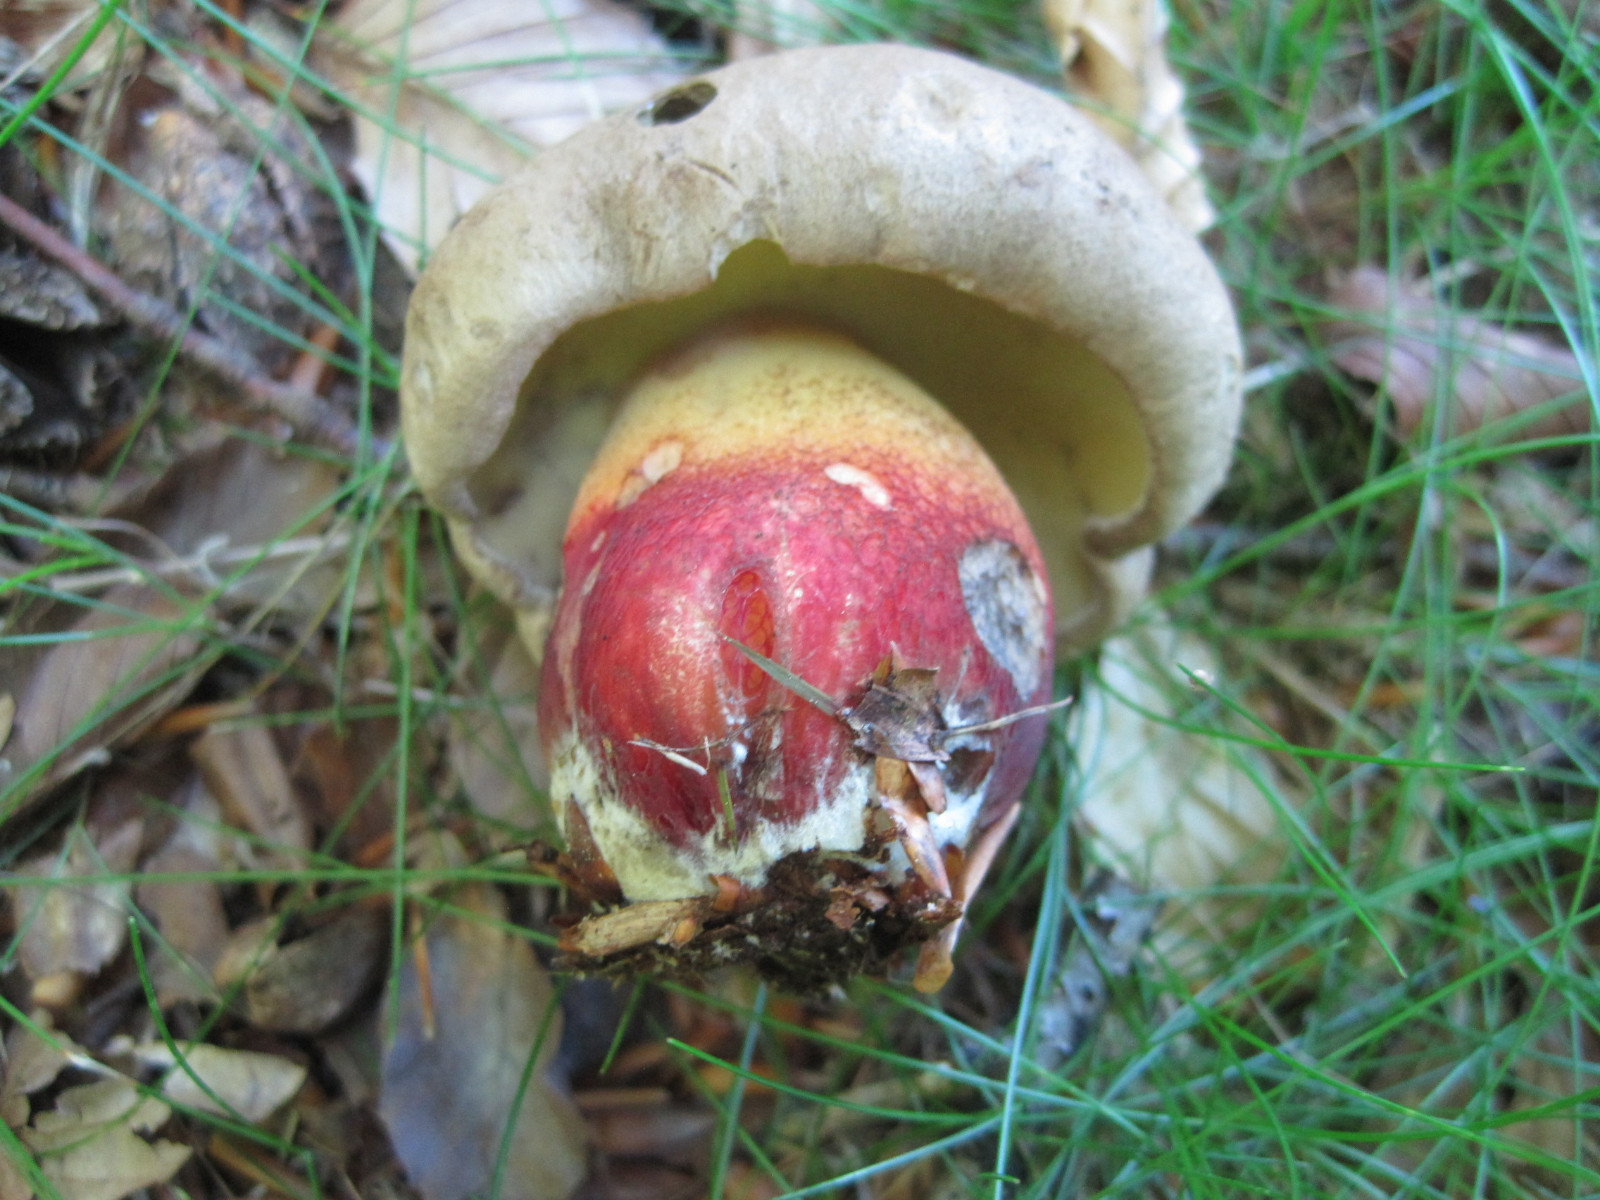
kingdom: Fungi
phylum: Basidiomycota
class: Agaricomycetes
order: Boletales
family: Boletaceae
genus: Caloboletus
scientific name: Caloboletus calopus
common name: skønfodet rørhat
